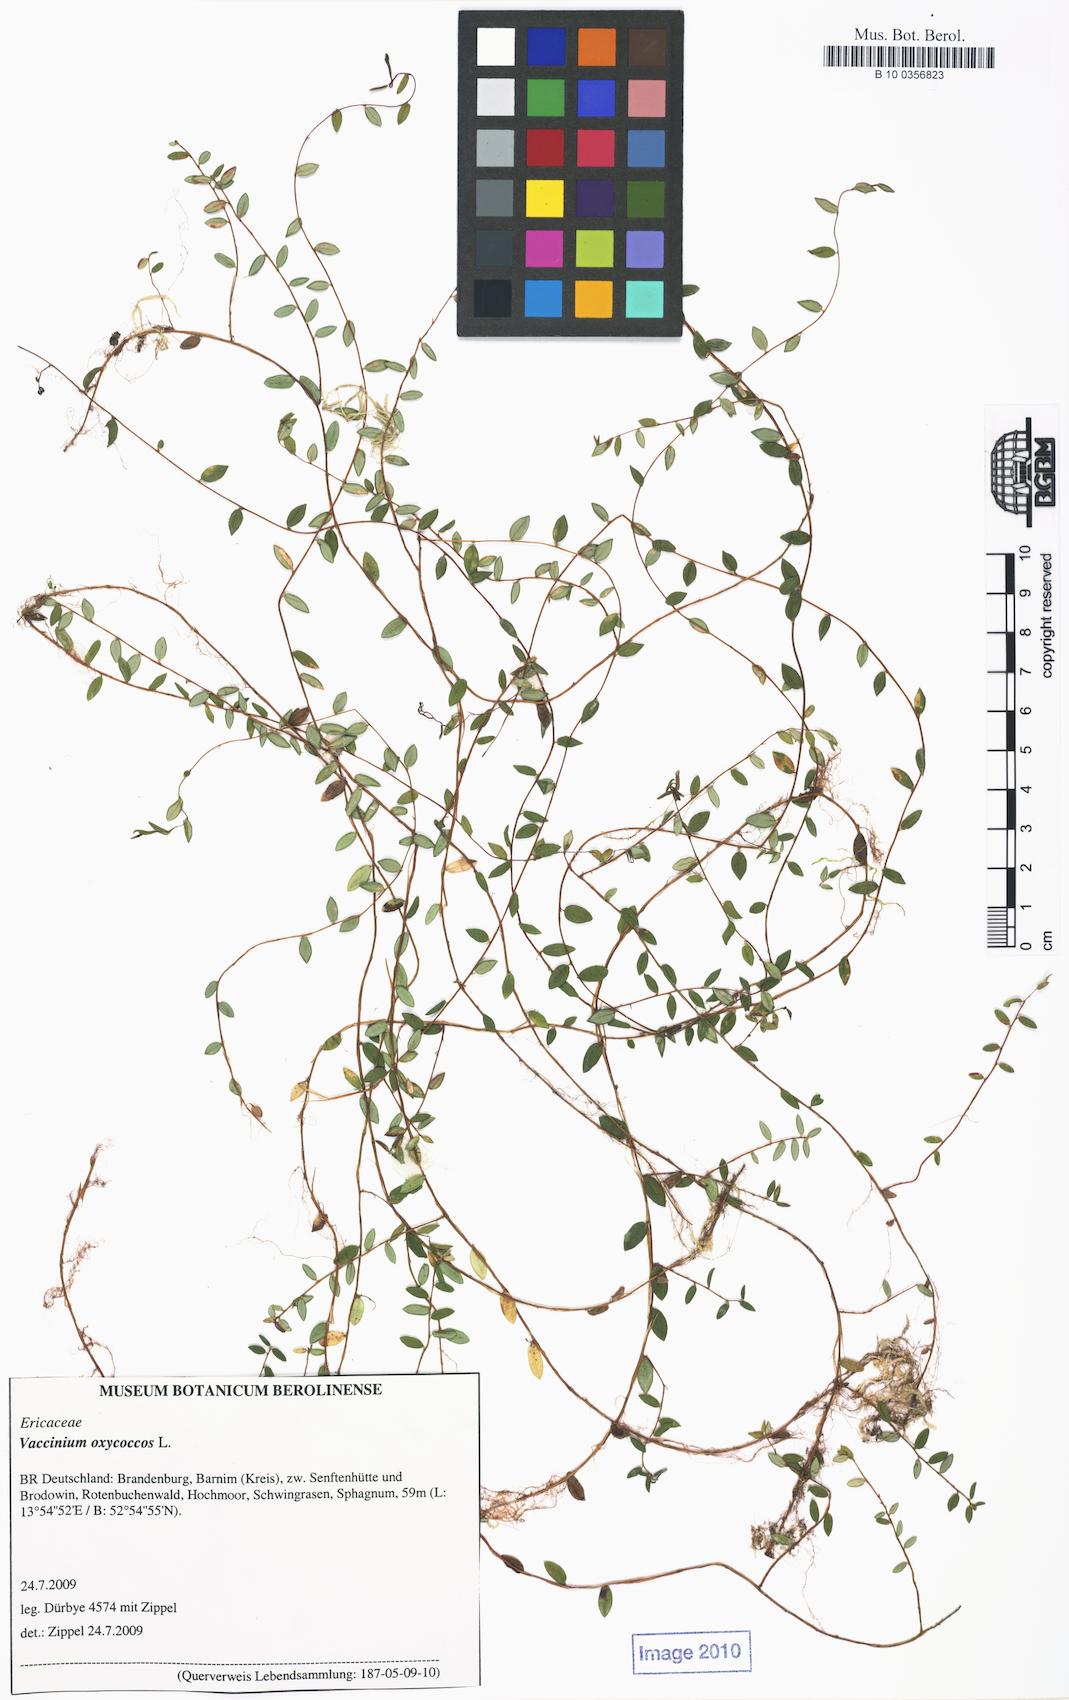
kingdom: Plantae
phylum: Tracheophyta
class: Magnoliopsida
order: Ericales
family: Ericaceae
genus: Vaccinium
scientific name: Vaccinium oxycoccos
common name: Cranberry
